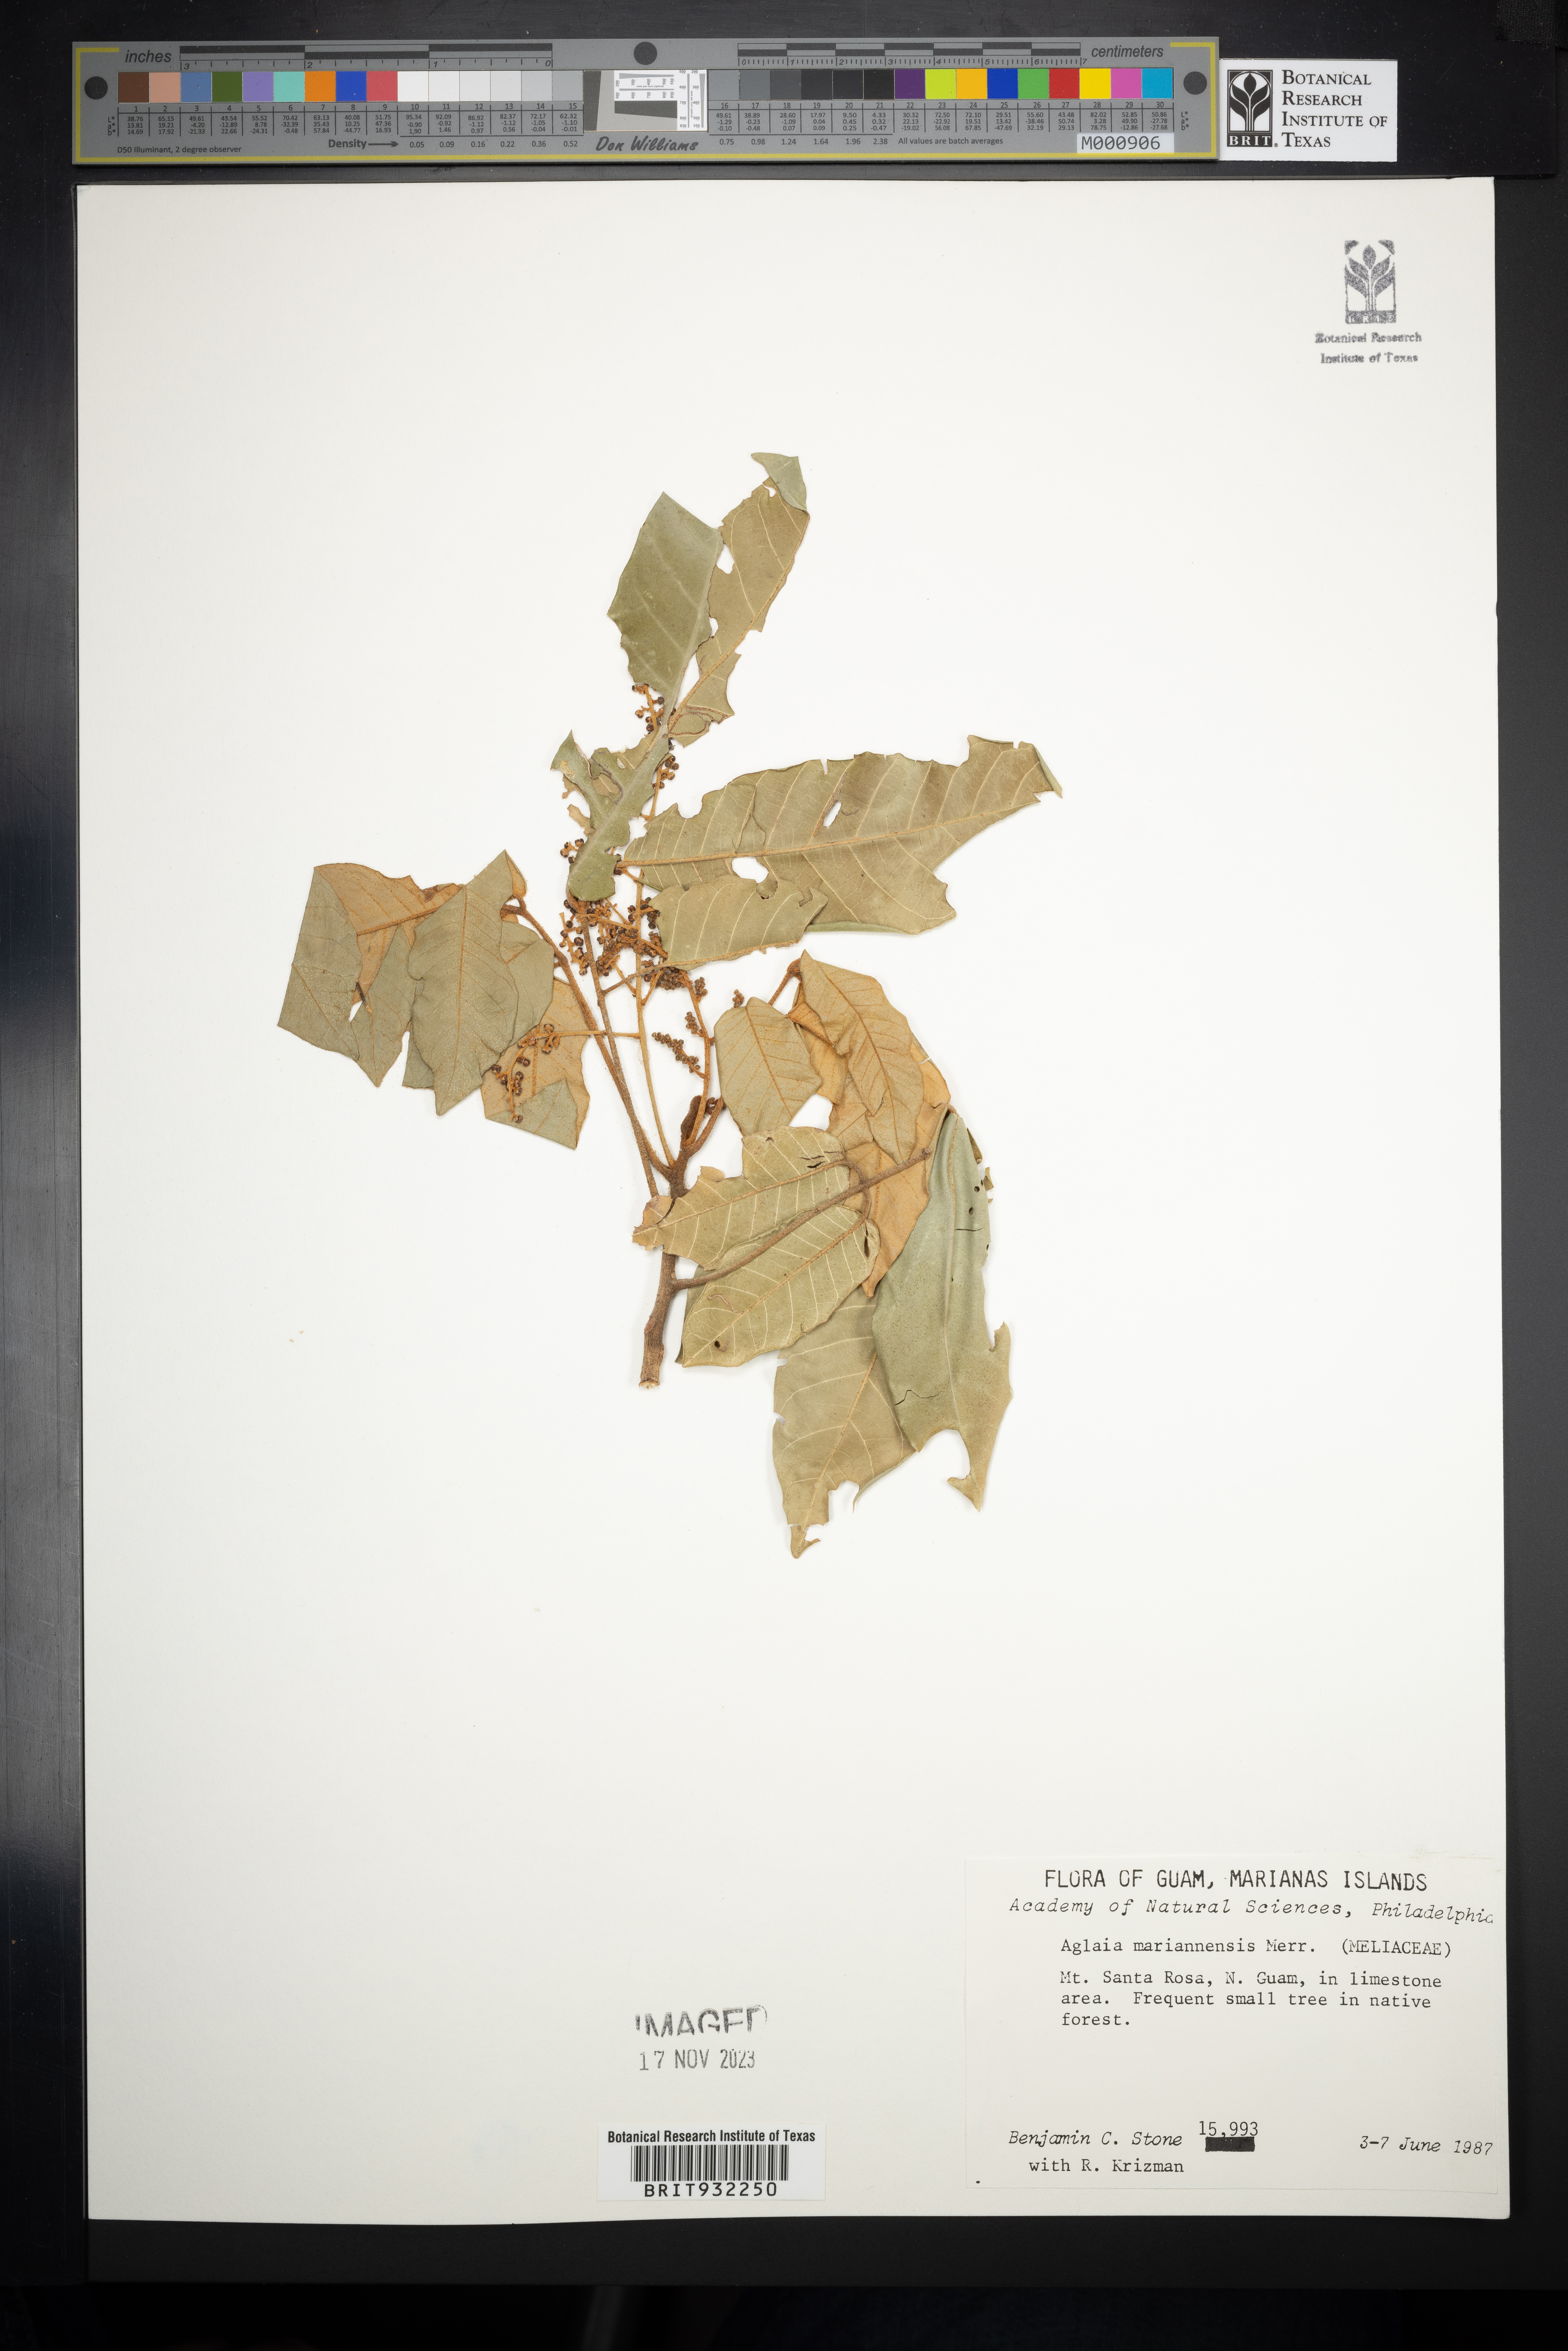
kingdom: Plantae
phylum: Tracheophyta
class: Magnoliopsida
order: Sapindales
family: Meliaceae
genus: Aglaia
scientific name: Aglaia
